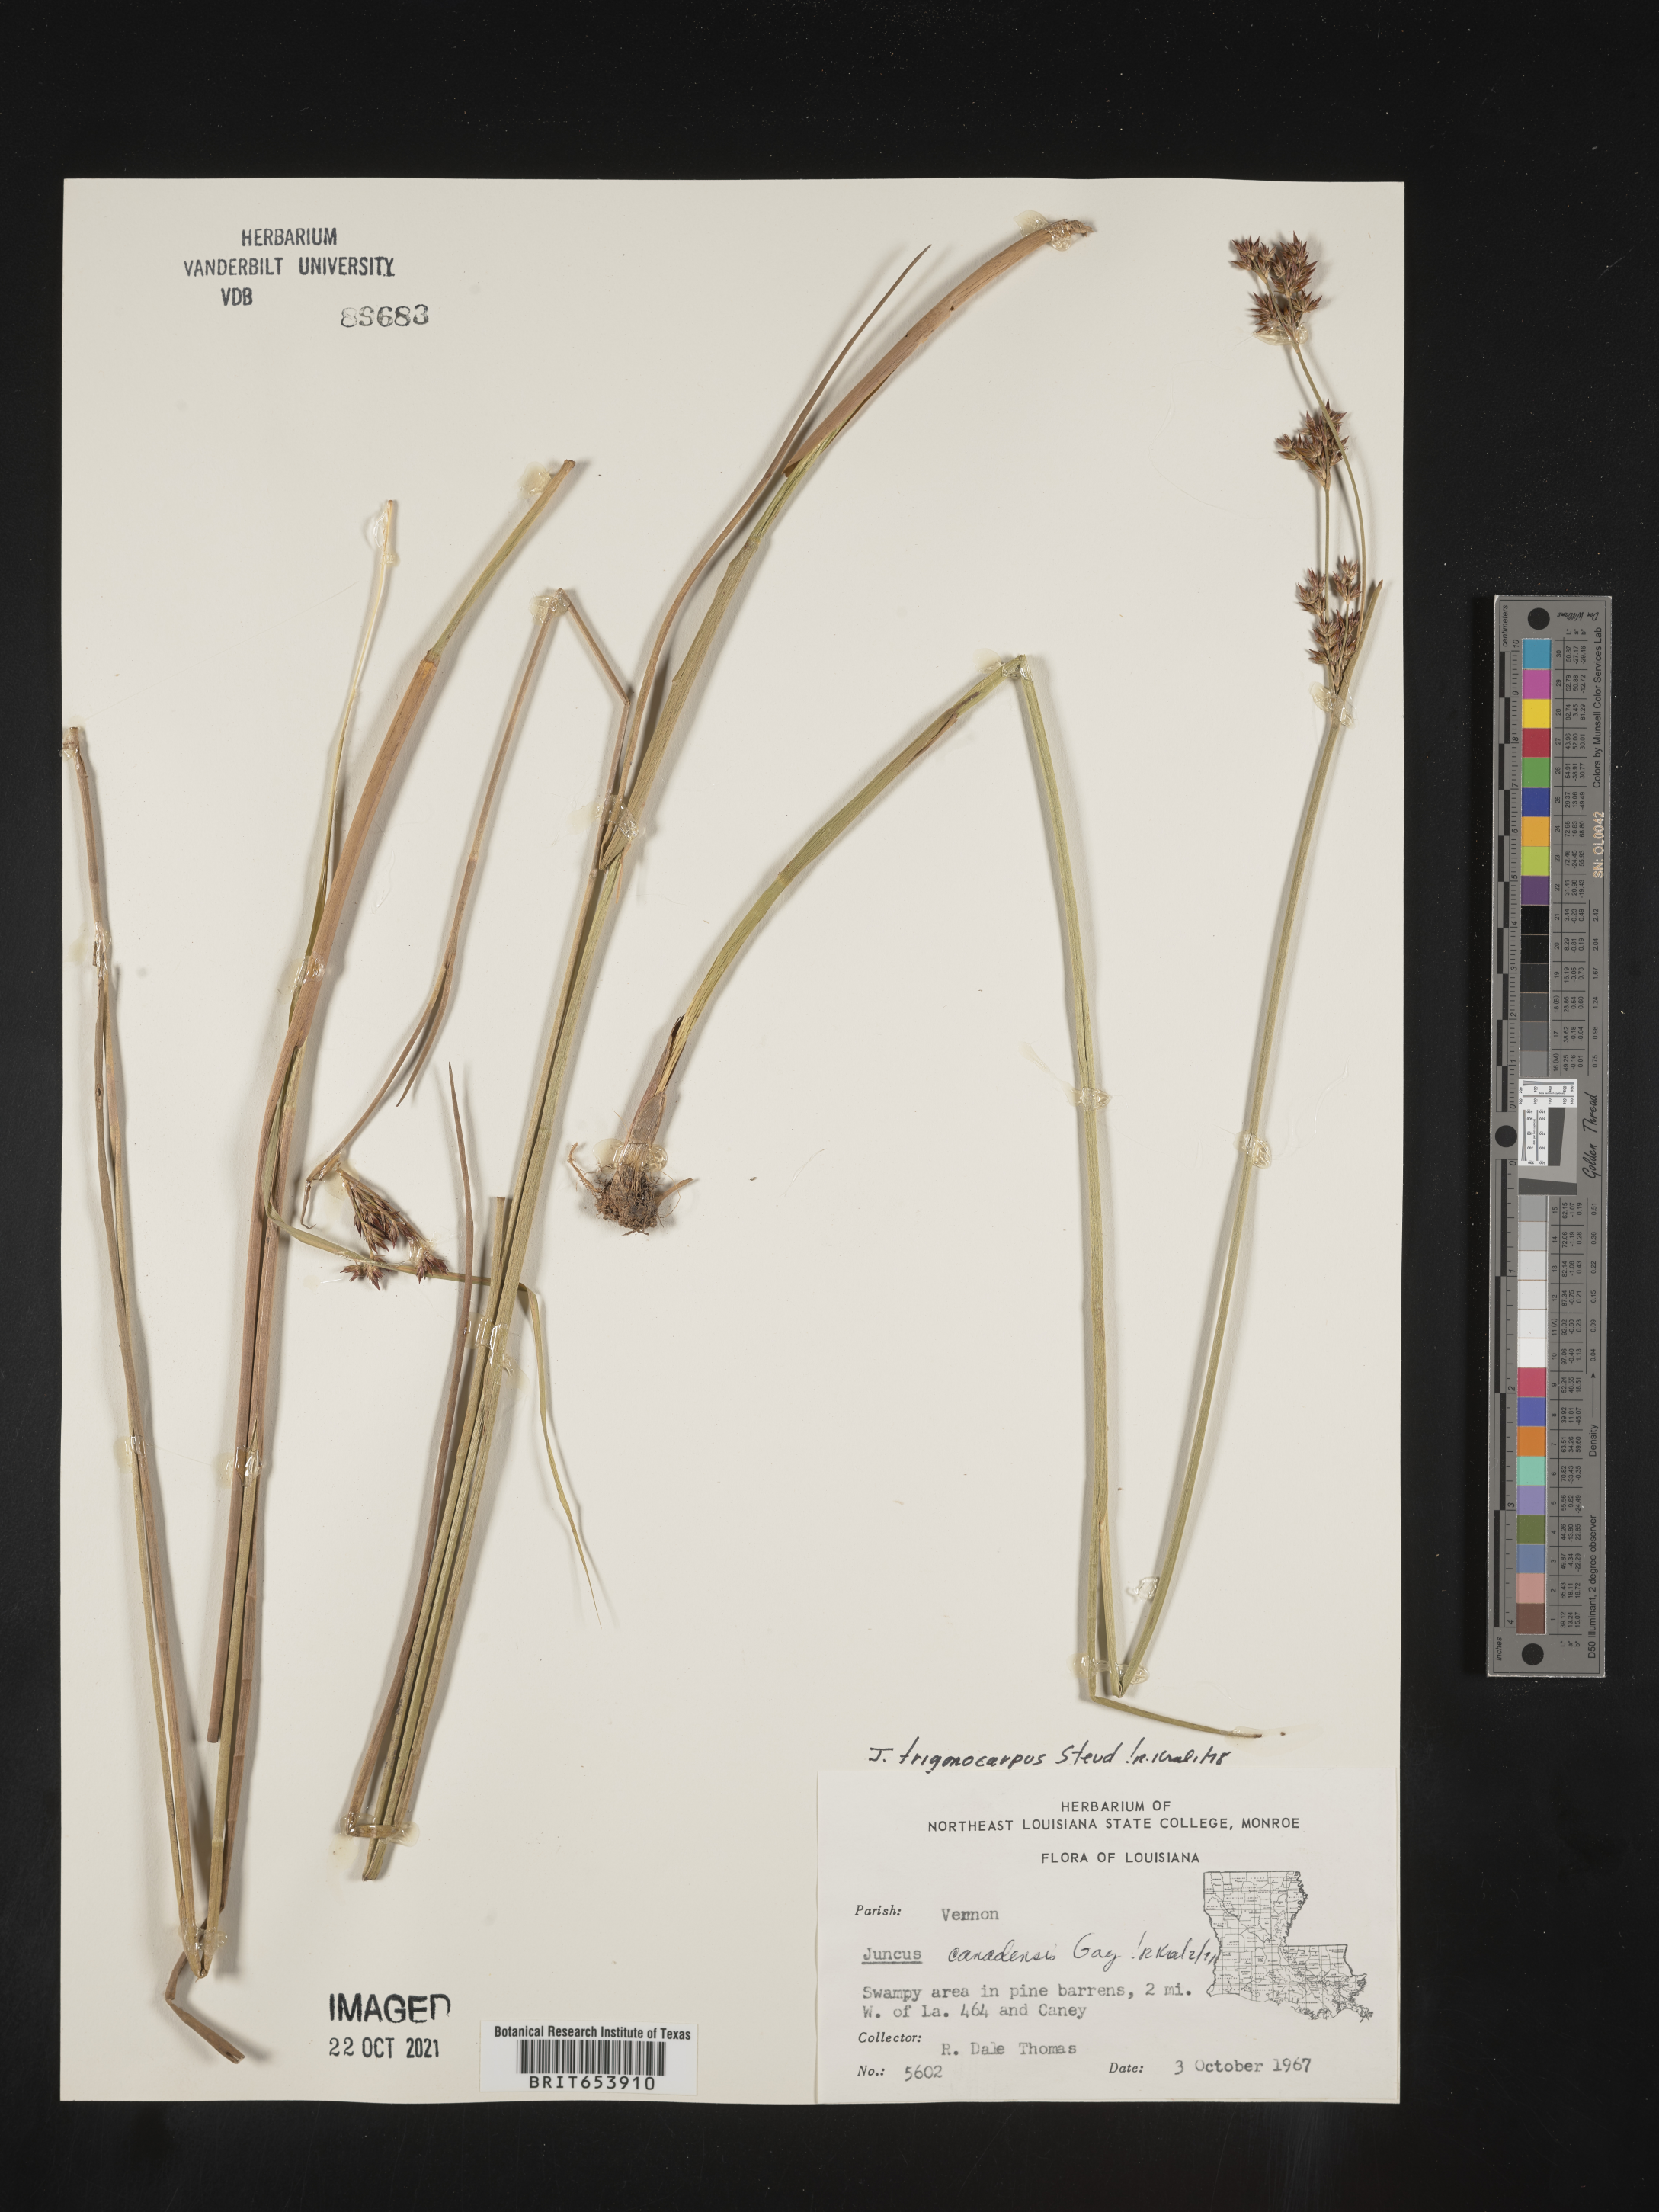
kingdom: Plantae
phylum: Tracheophyta
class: Liliopsida
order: Poales
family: Juncaceae
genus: Juncus
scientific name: Juncus trigonocarpus
